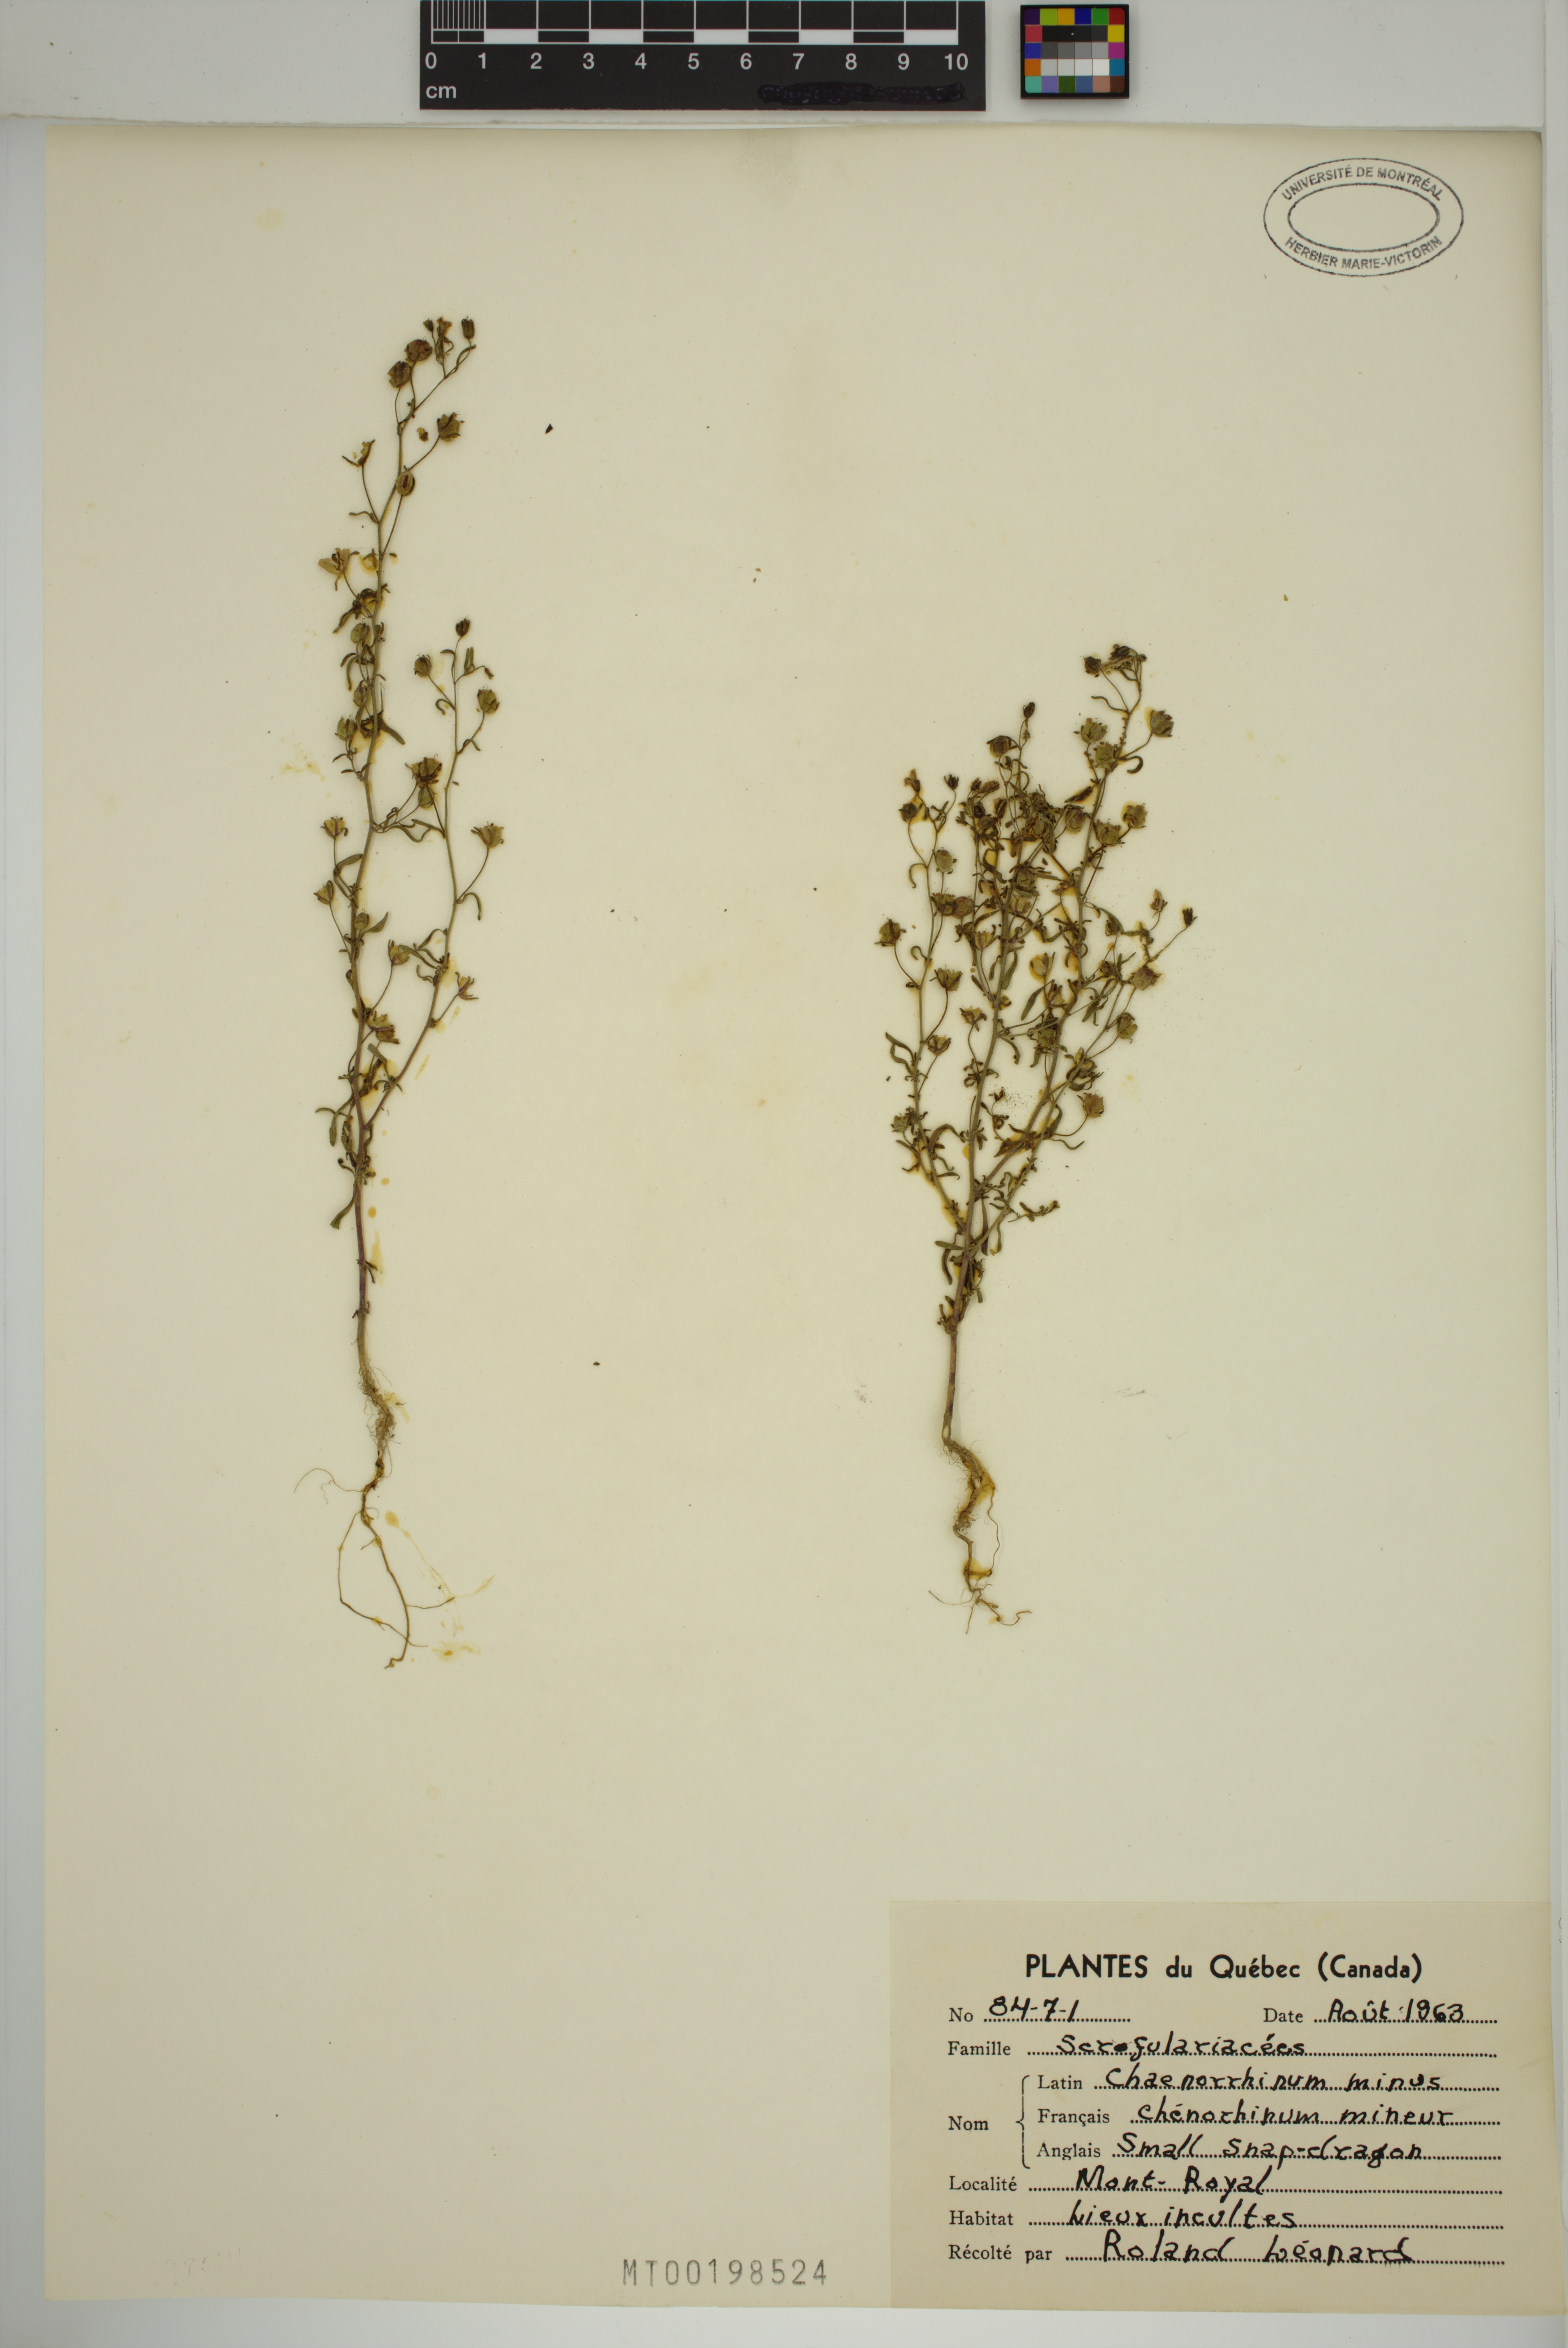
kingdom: Plantae
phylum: Tracheophyta
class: Magnoliopsida
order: Lamiales
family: Plantaginaceae
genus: Chaenorhinum
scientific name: Chaenorhinum minus
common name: Dwarf snapdragon
